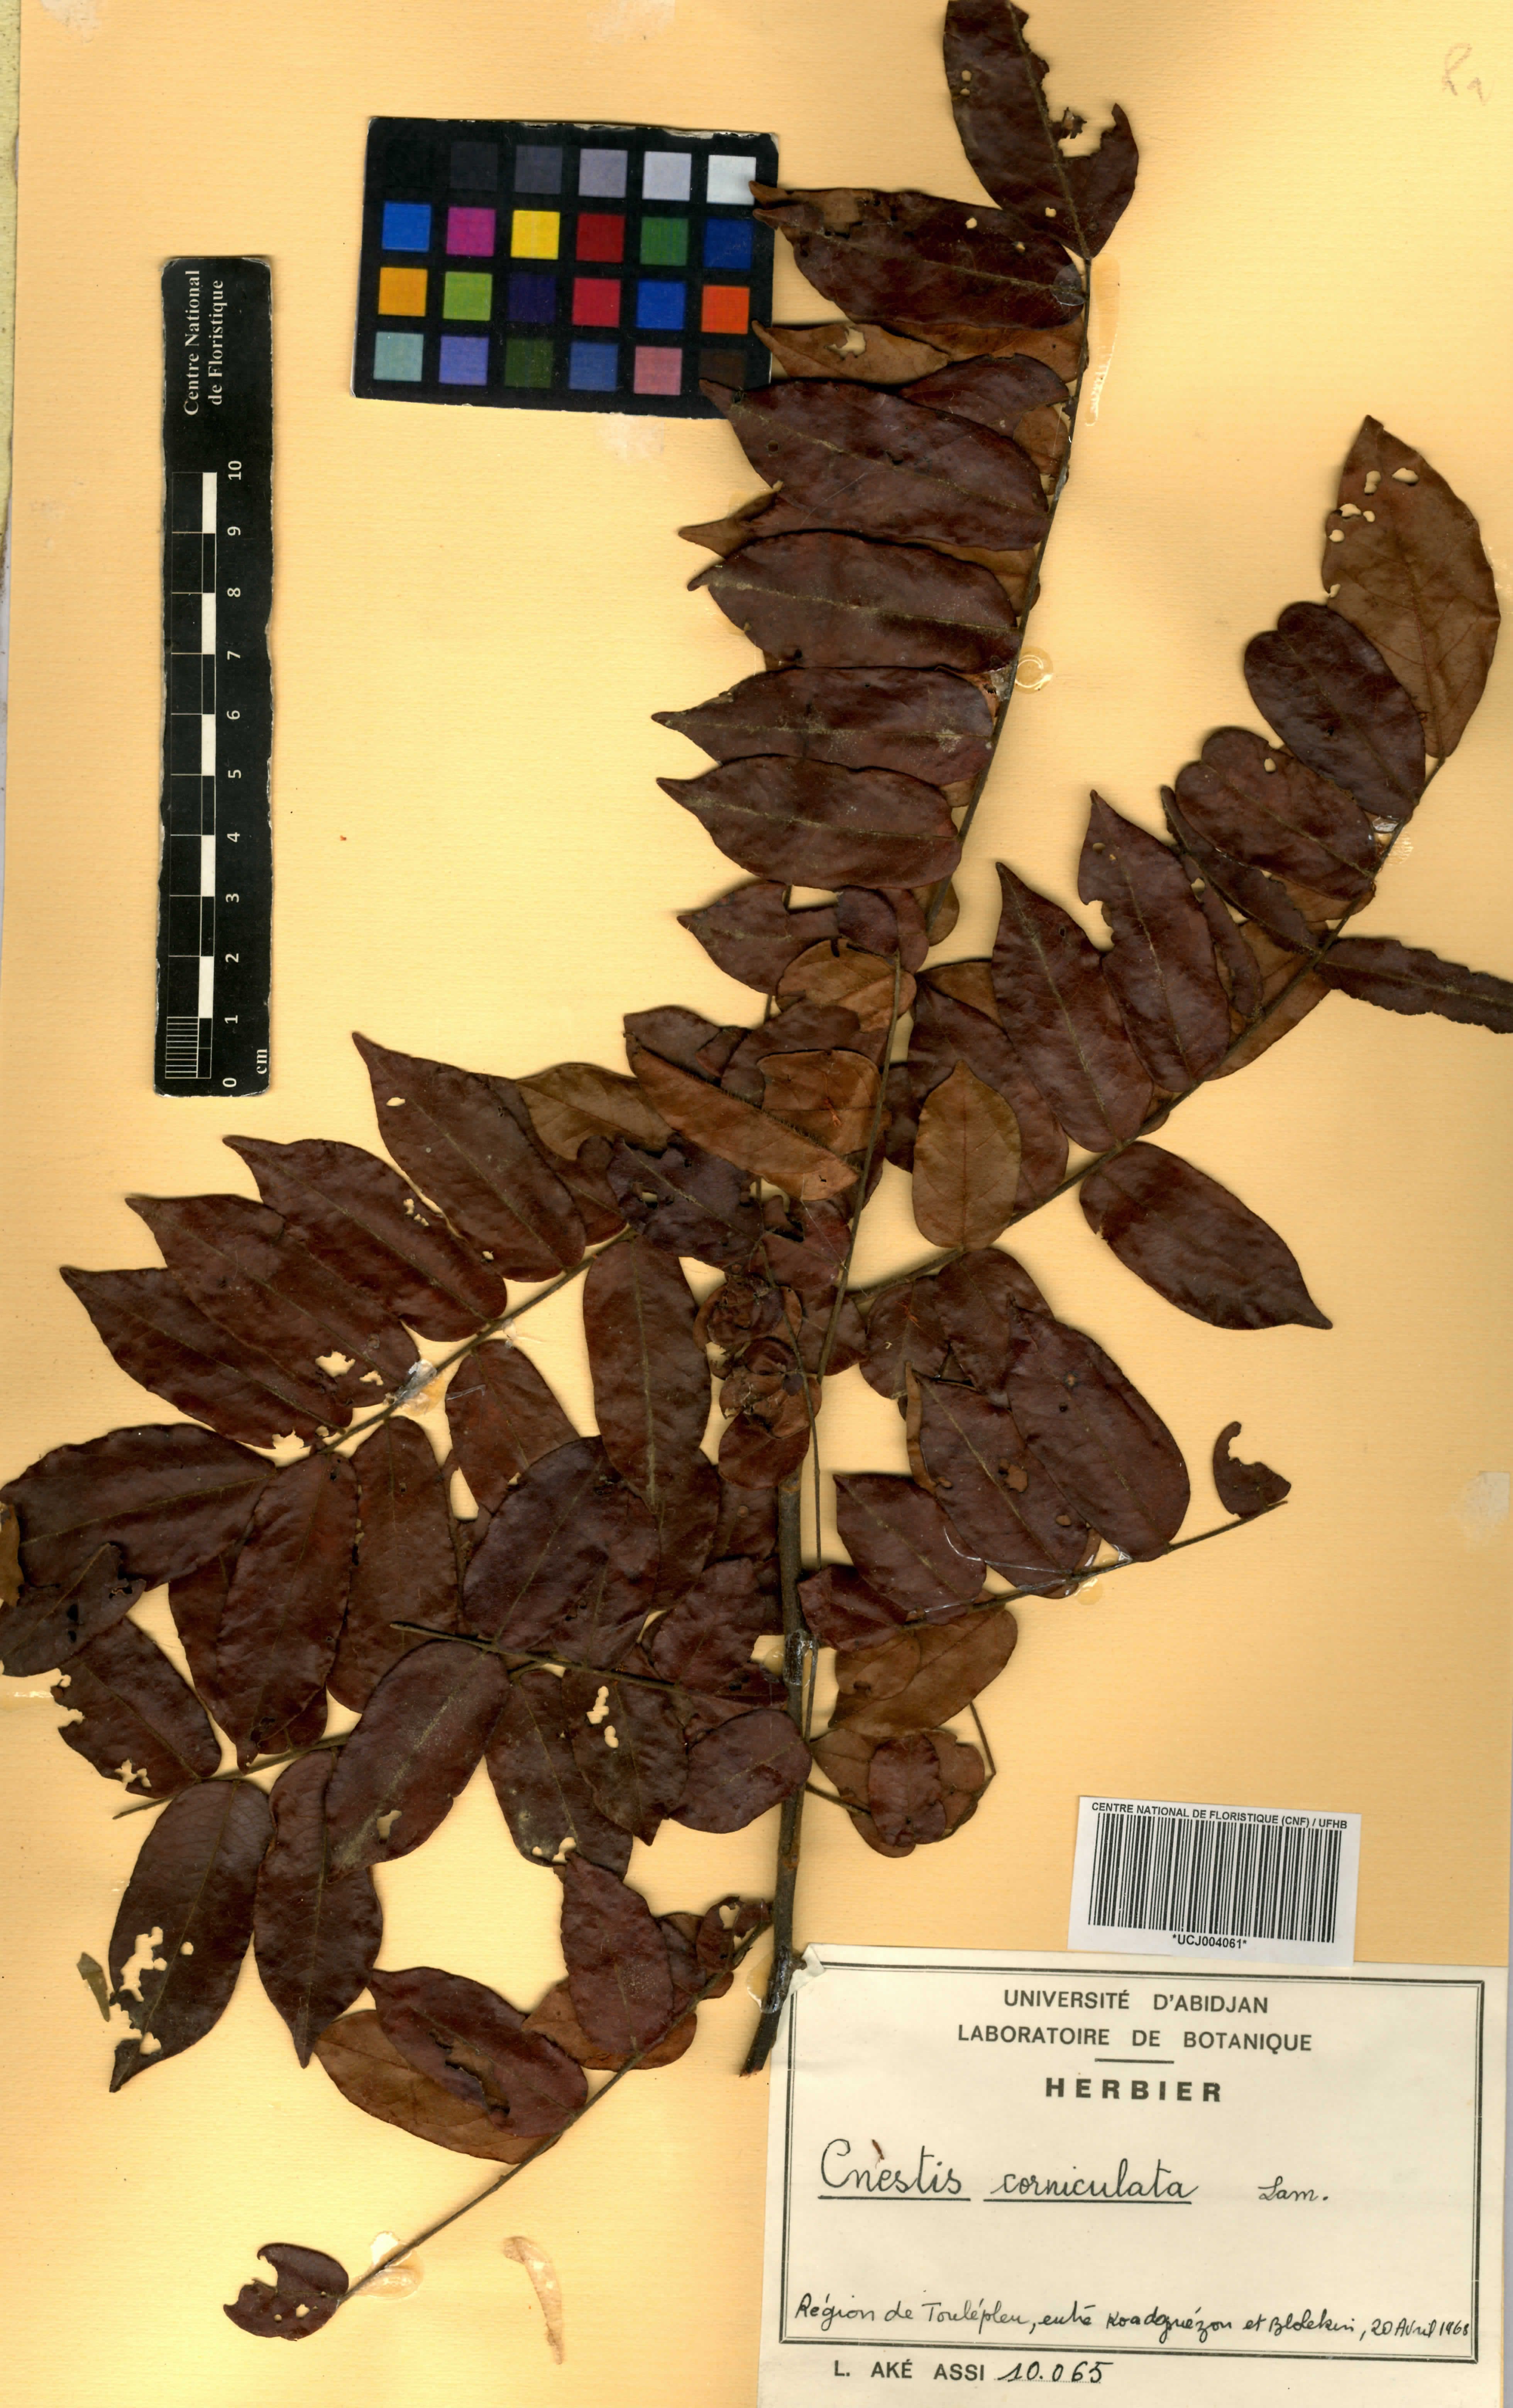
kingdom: Plantae
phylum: Tracheophyta
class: Magnoliopsida
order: Oxalidales
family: Connaraceae
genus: Cnestis
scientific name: Cnestis corniculata
